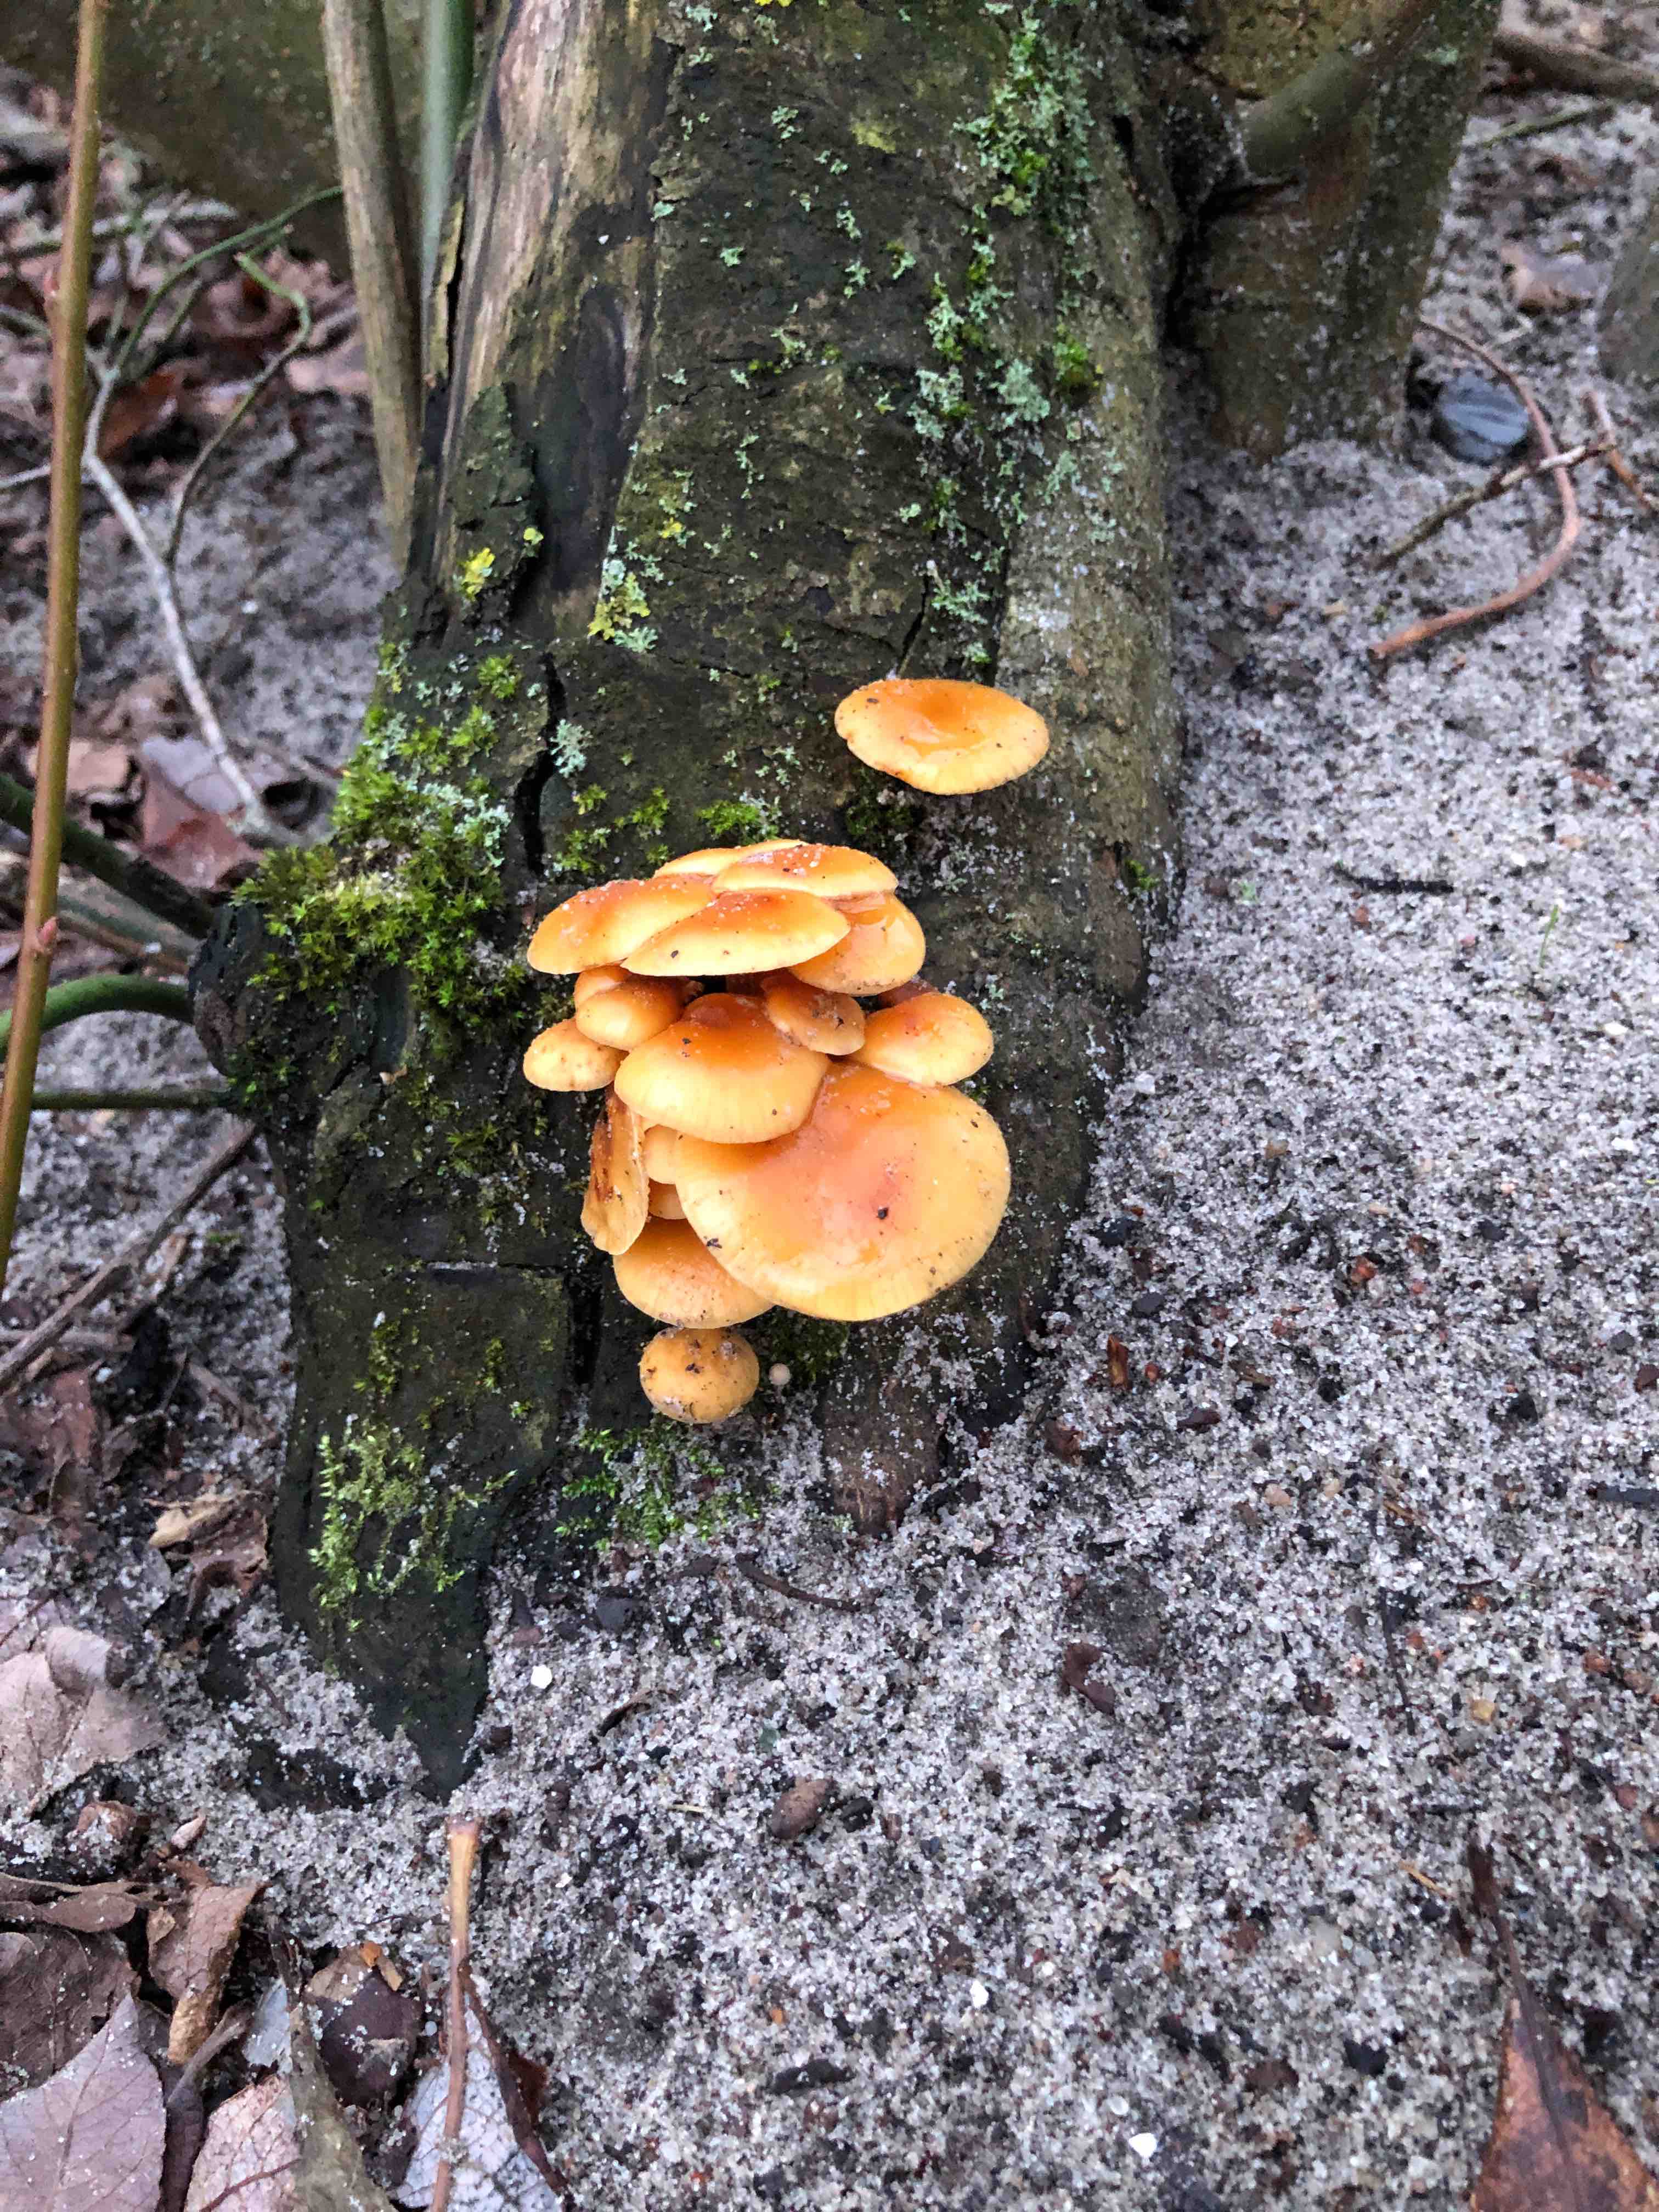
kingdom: Fungi
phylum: Basidiomycota
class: Agaricomycetes
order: Agaricales
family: Physalacriaceae
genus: Flammulina
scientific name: Flammulina
